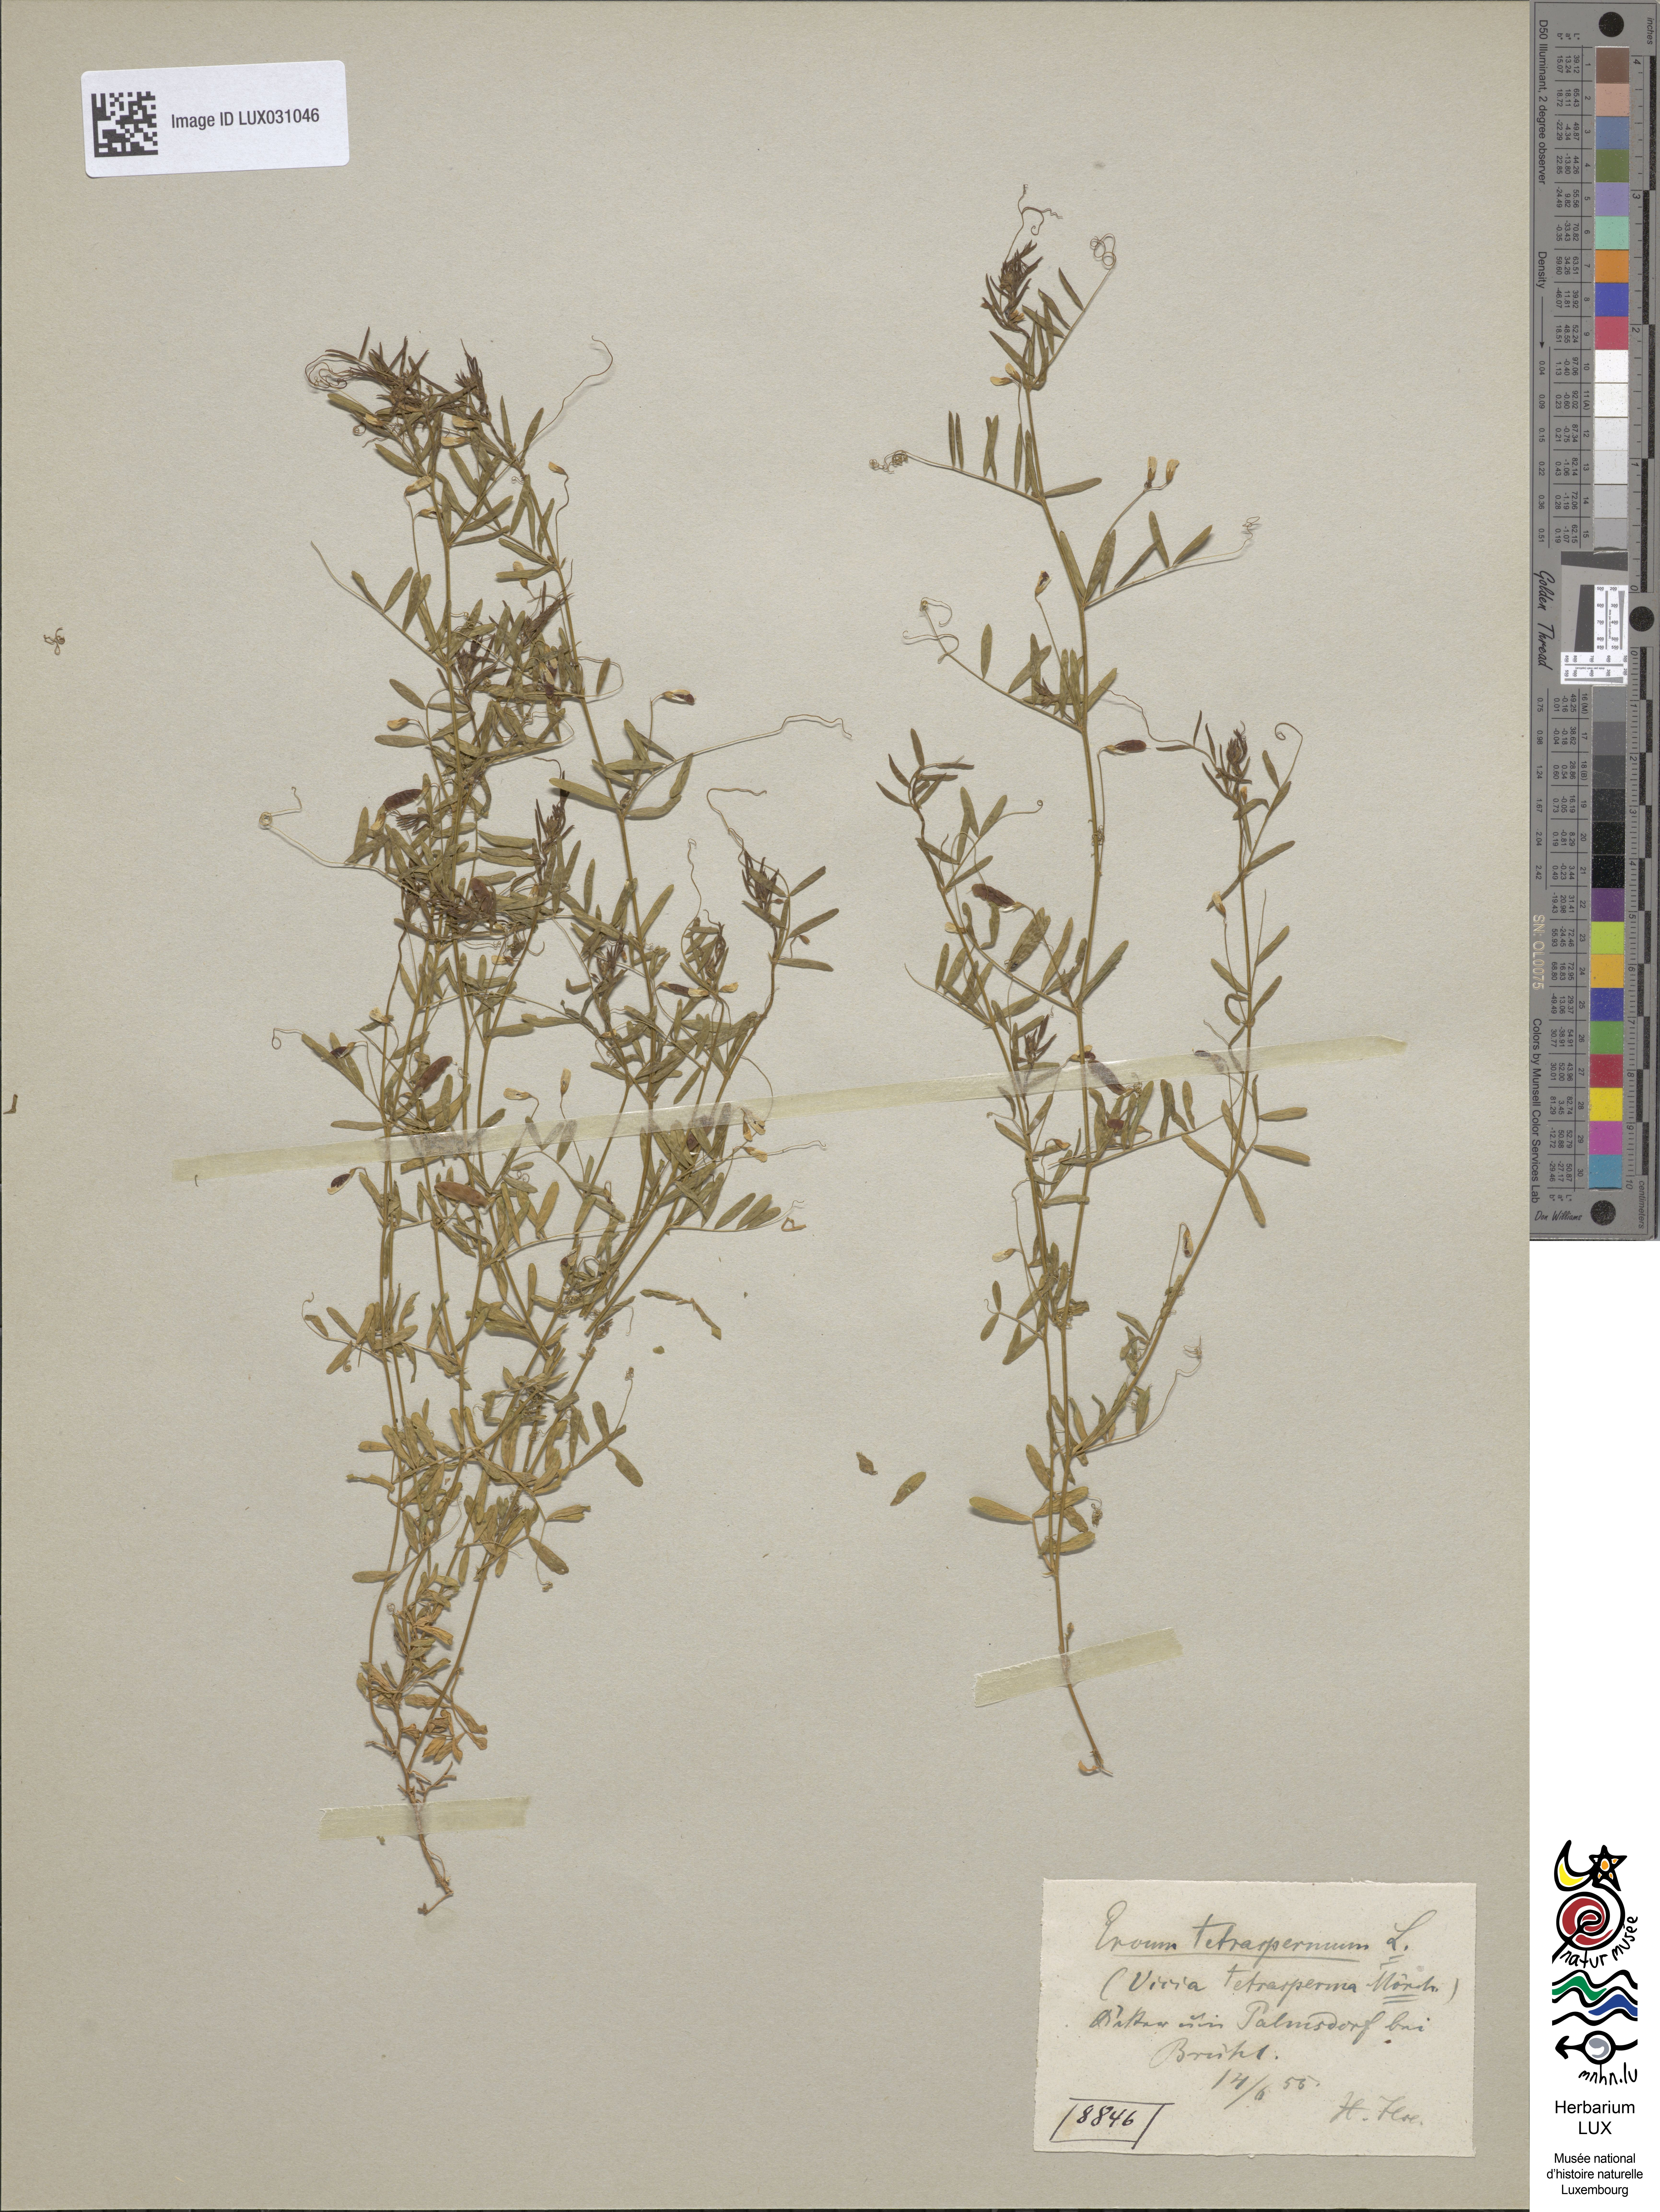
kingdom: Plantae
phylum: Tracheophyta
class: Magnoliopsida
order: Fabales
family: Fabaceae
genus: Vicia
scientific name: Vicia tetrasperma
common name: Smooth tare
